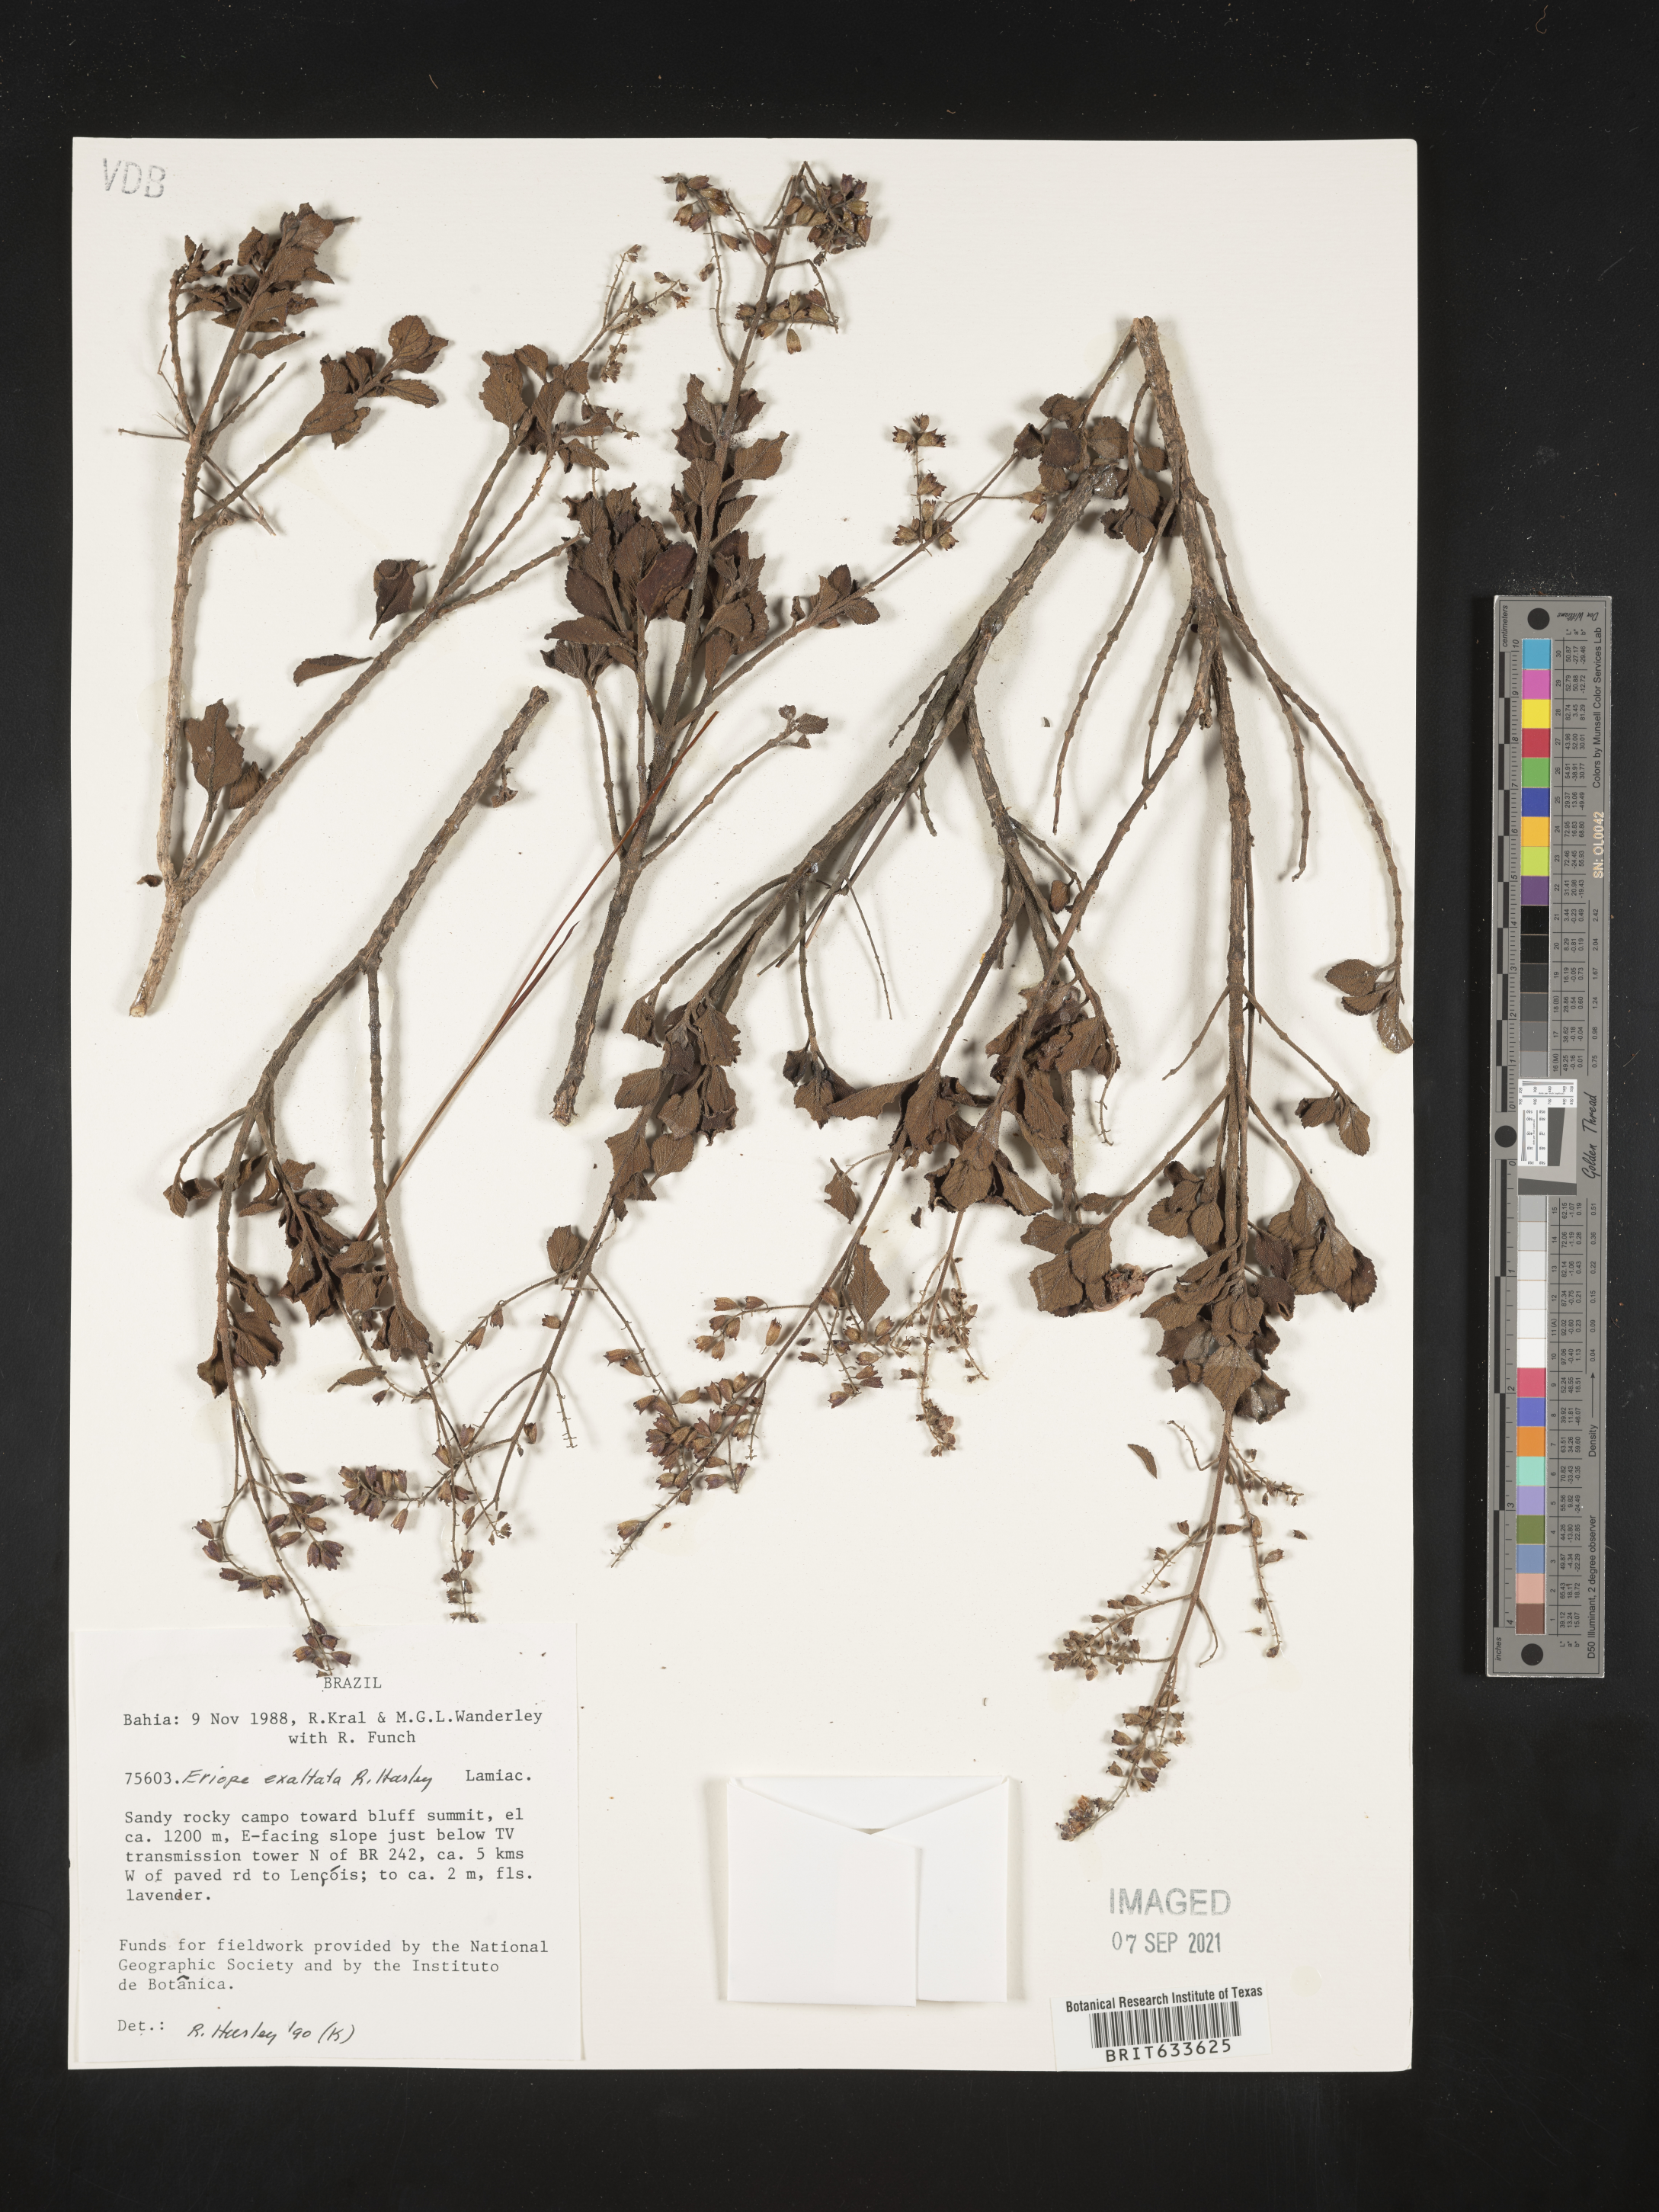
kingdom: Plantae
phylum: Tracheophyta
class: Magnoliopsida
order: Lamiales
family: Lamiaceae
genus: Eriope
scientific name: Eriope
